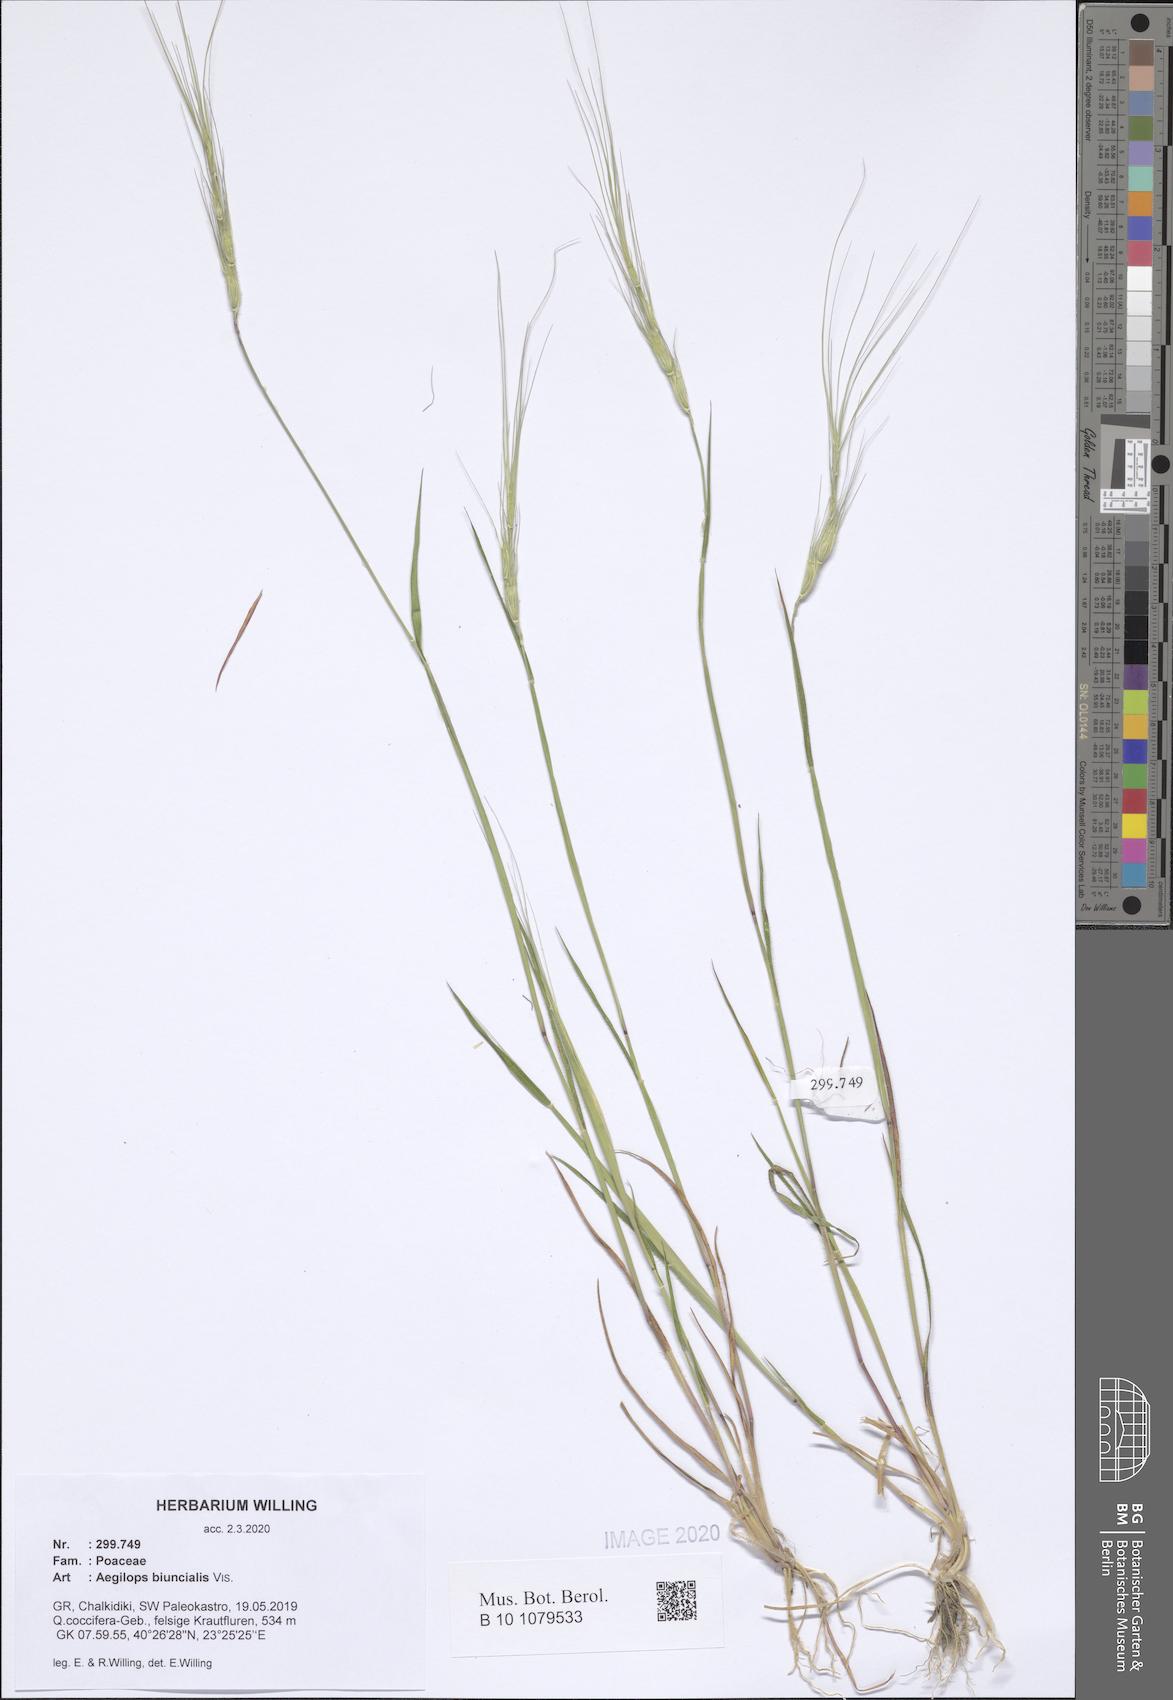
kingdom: Plantae
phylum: Tracheophyta
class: Liliopsida
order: Poales
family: Poaceae
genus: Aegilops
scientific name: Aegilops biuncialis
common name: Mediterranean aegilops
